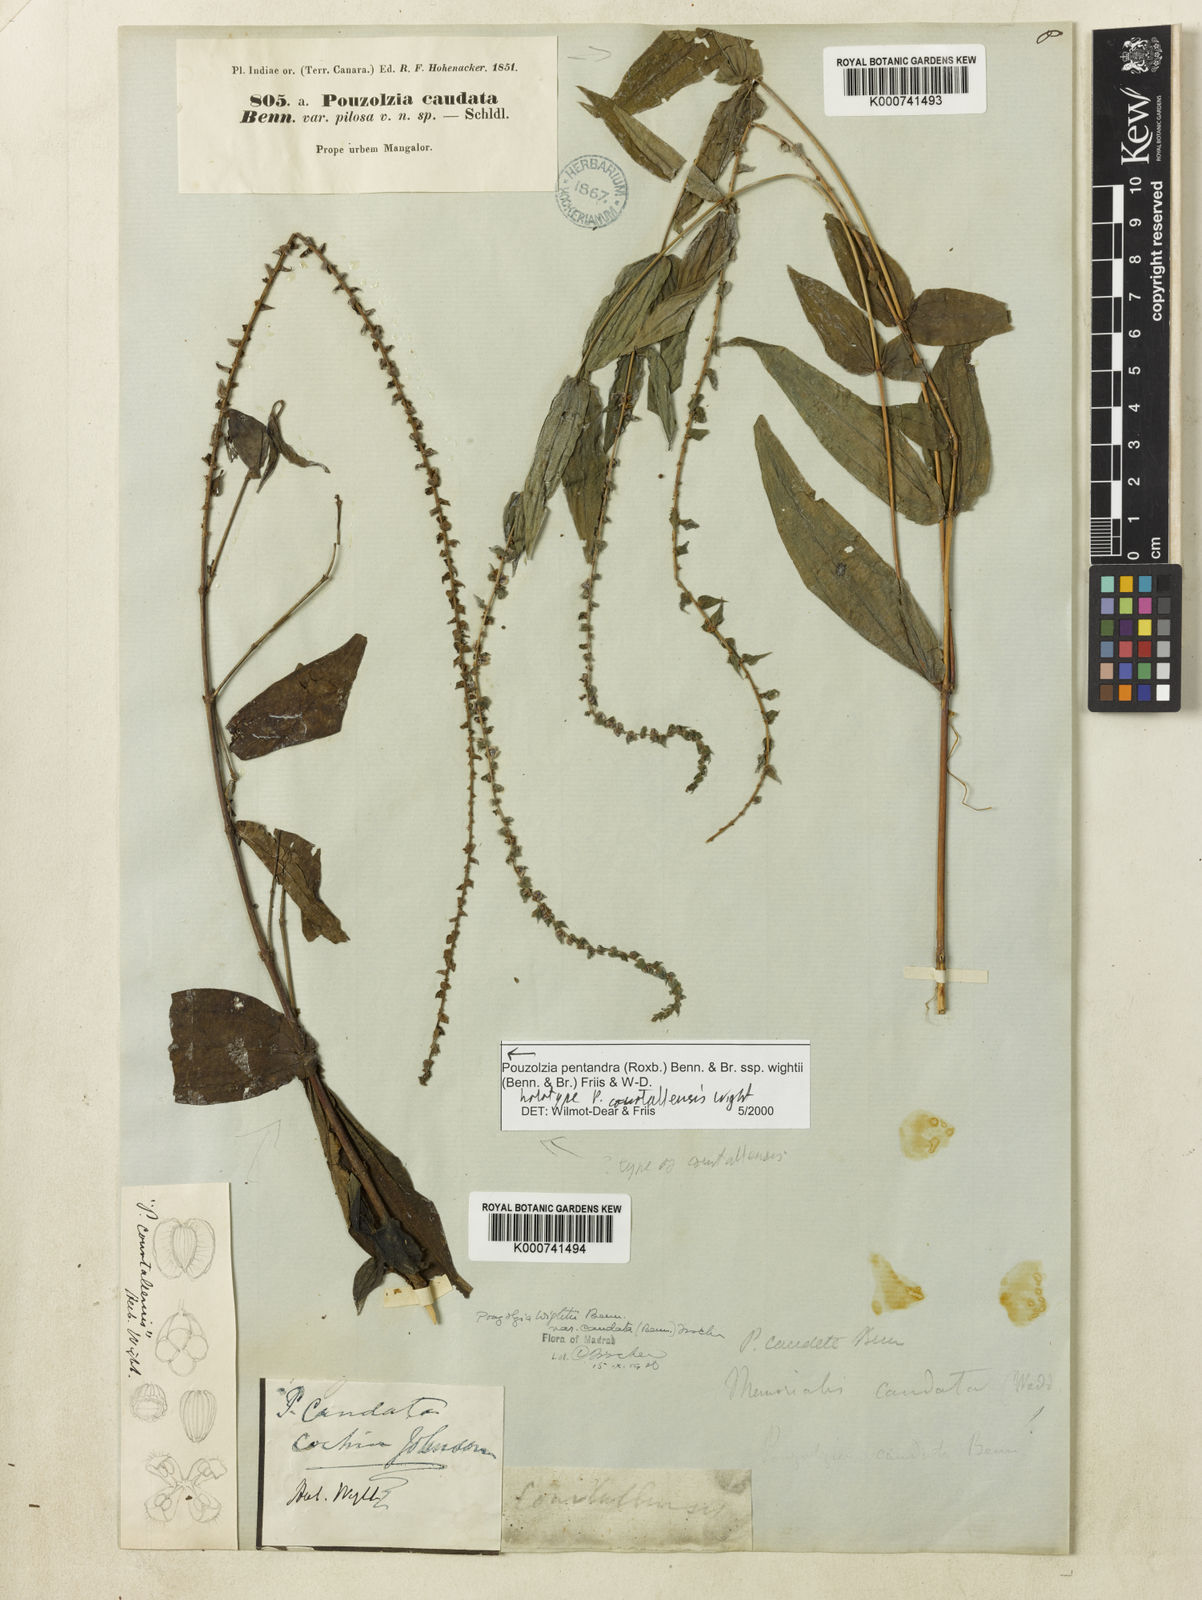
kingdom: Plantae
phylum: Tracheophyta
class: Magnoliopsida
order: Rosales
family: Urticaceae
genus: Gonostegia
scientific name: Gonostegia pentandra
